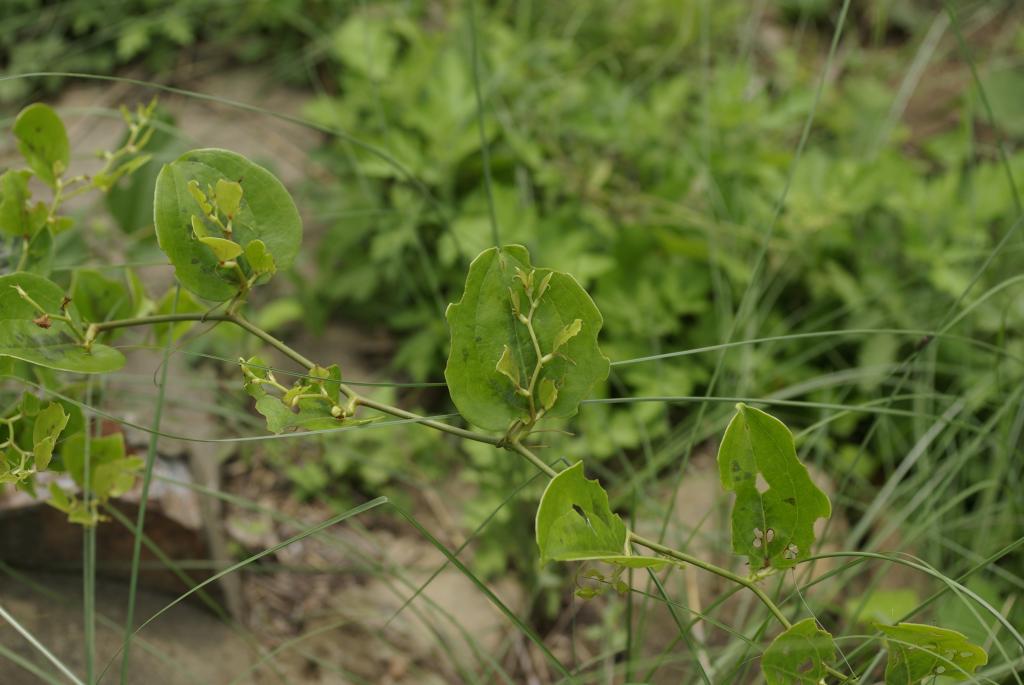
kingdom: Plantae
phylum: Tracheophyta
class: Liliopsida
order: Liliales
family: Smilacaceae
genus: Smilax
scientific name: Smilax china
